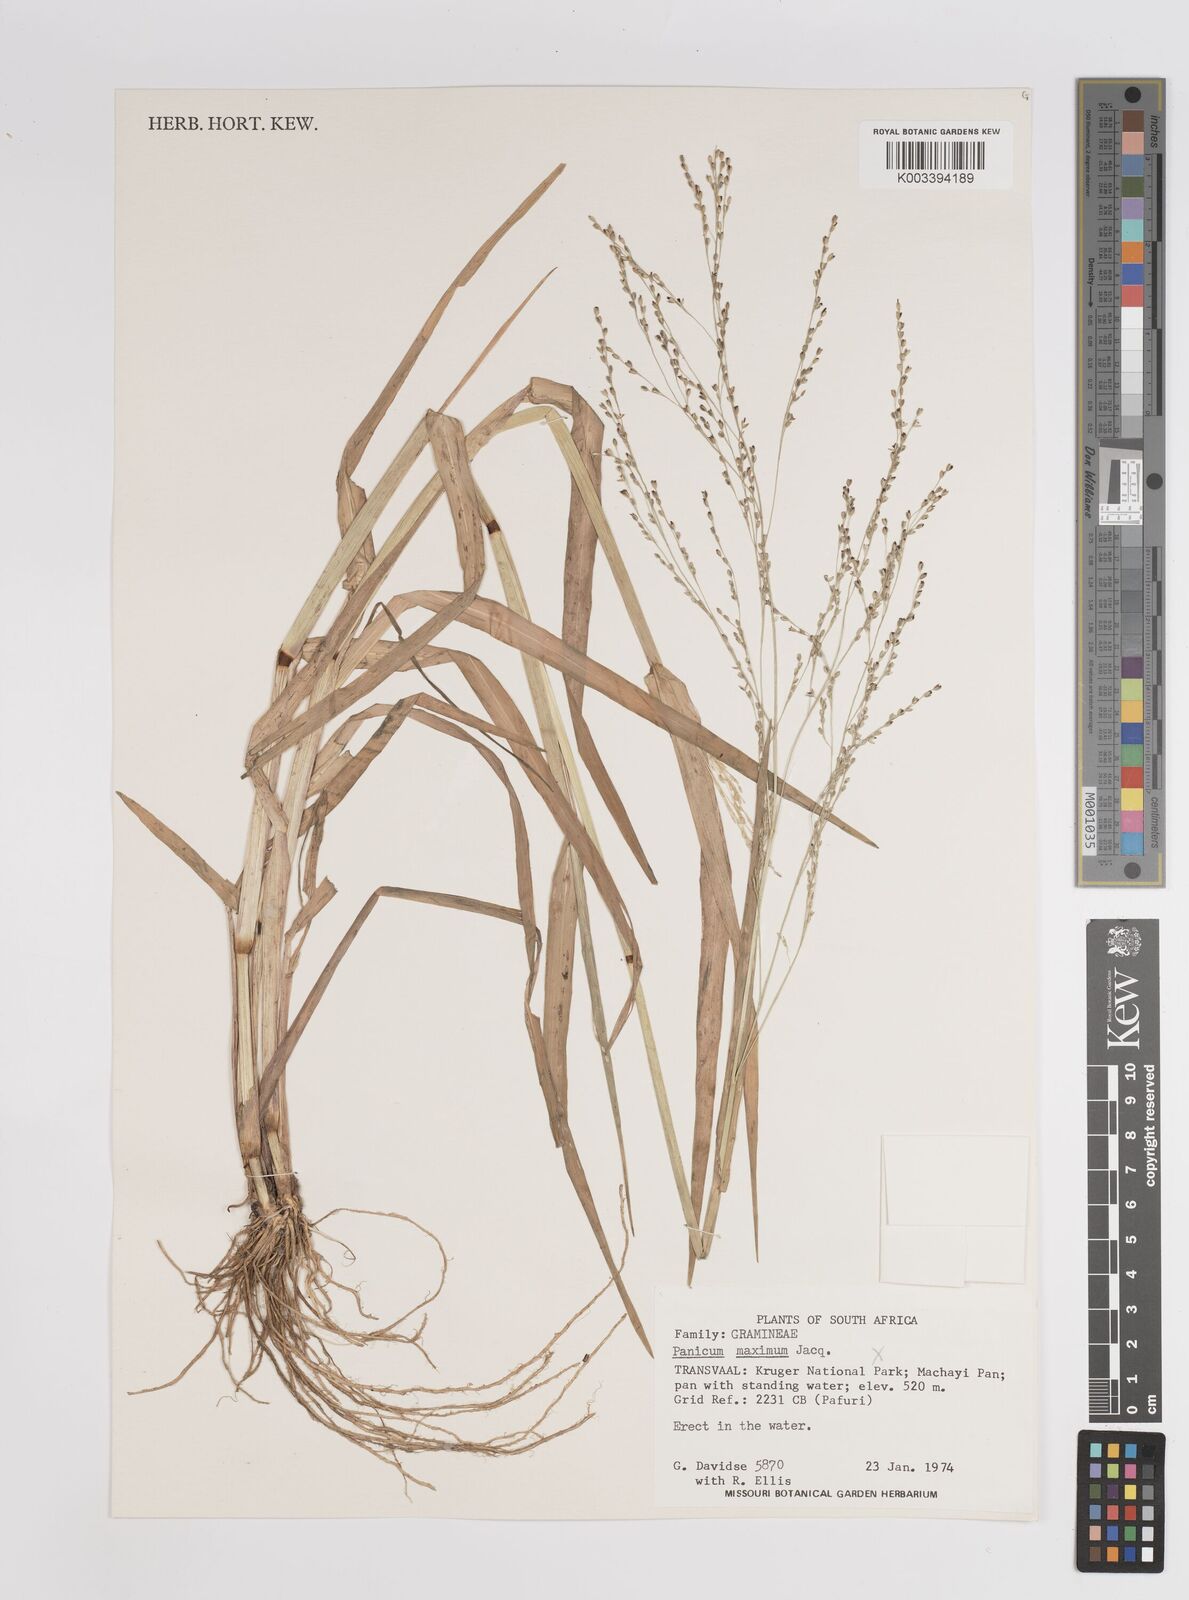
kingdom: Plantae
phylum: Tracheophyta
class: Liliopsida
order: Poales
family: Poaceae
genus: Panicum
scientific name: Panicum schinzii
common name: Sweet grass
